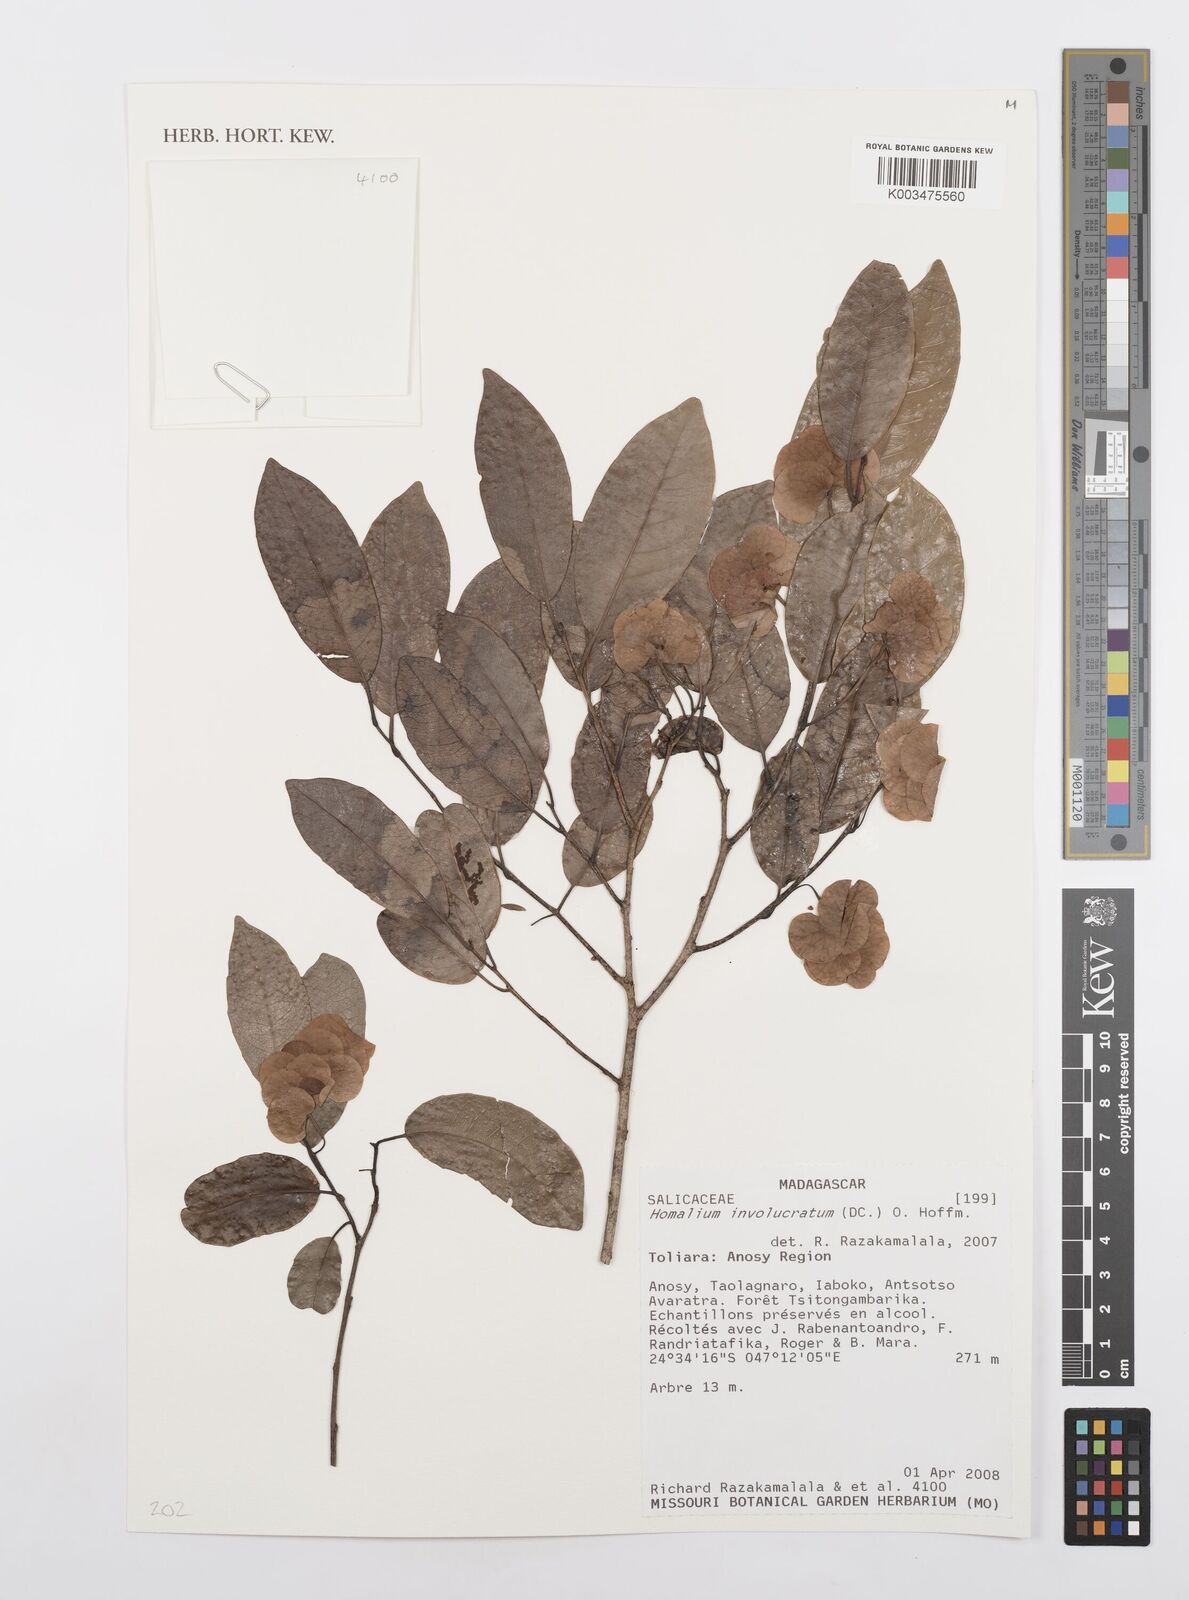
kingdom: Plantae
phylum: Tracheophyta
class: Magnoliopsida
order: Malpighiales
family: Salicaceae
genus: Homalium
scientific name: Homalium involucratum
